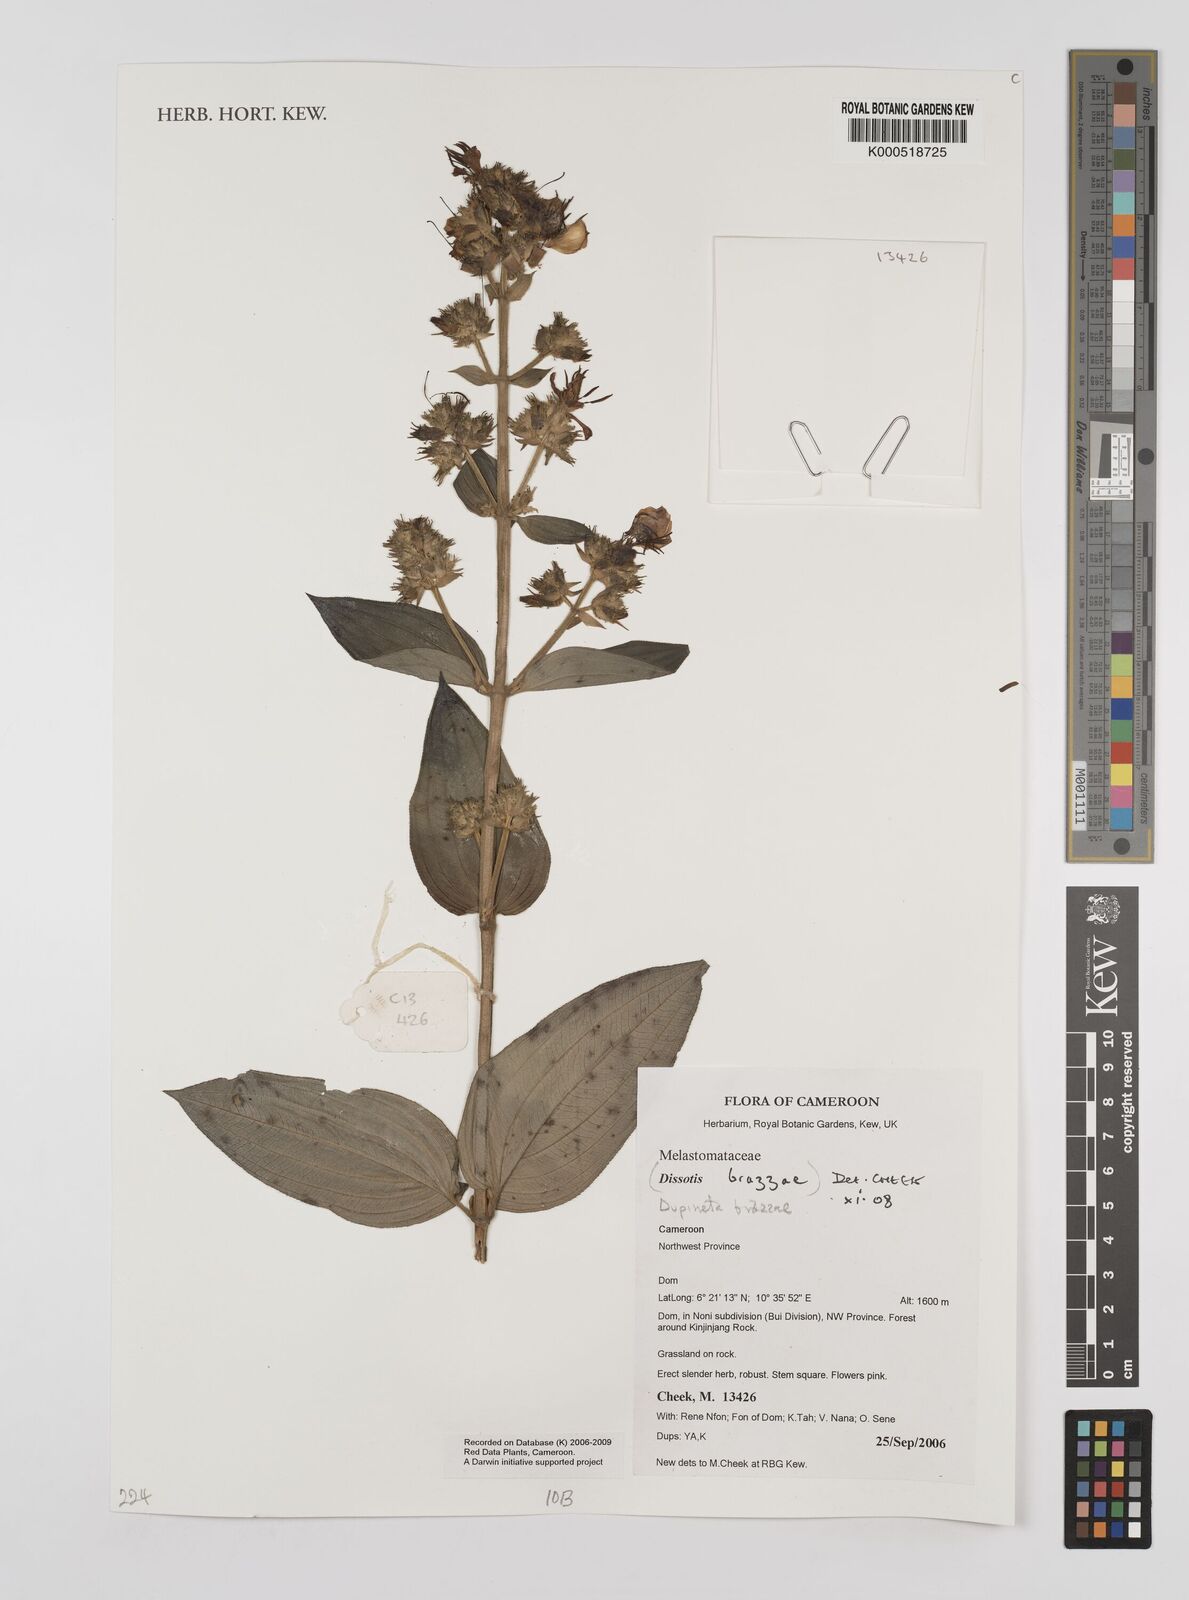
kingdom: Plantae
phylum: Tracheophyta
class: Magnoliopsida
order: Myrtales
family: Melastomataceae
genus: Dupineta
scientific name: Dupineta brazzae
